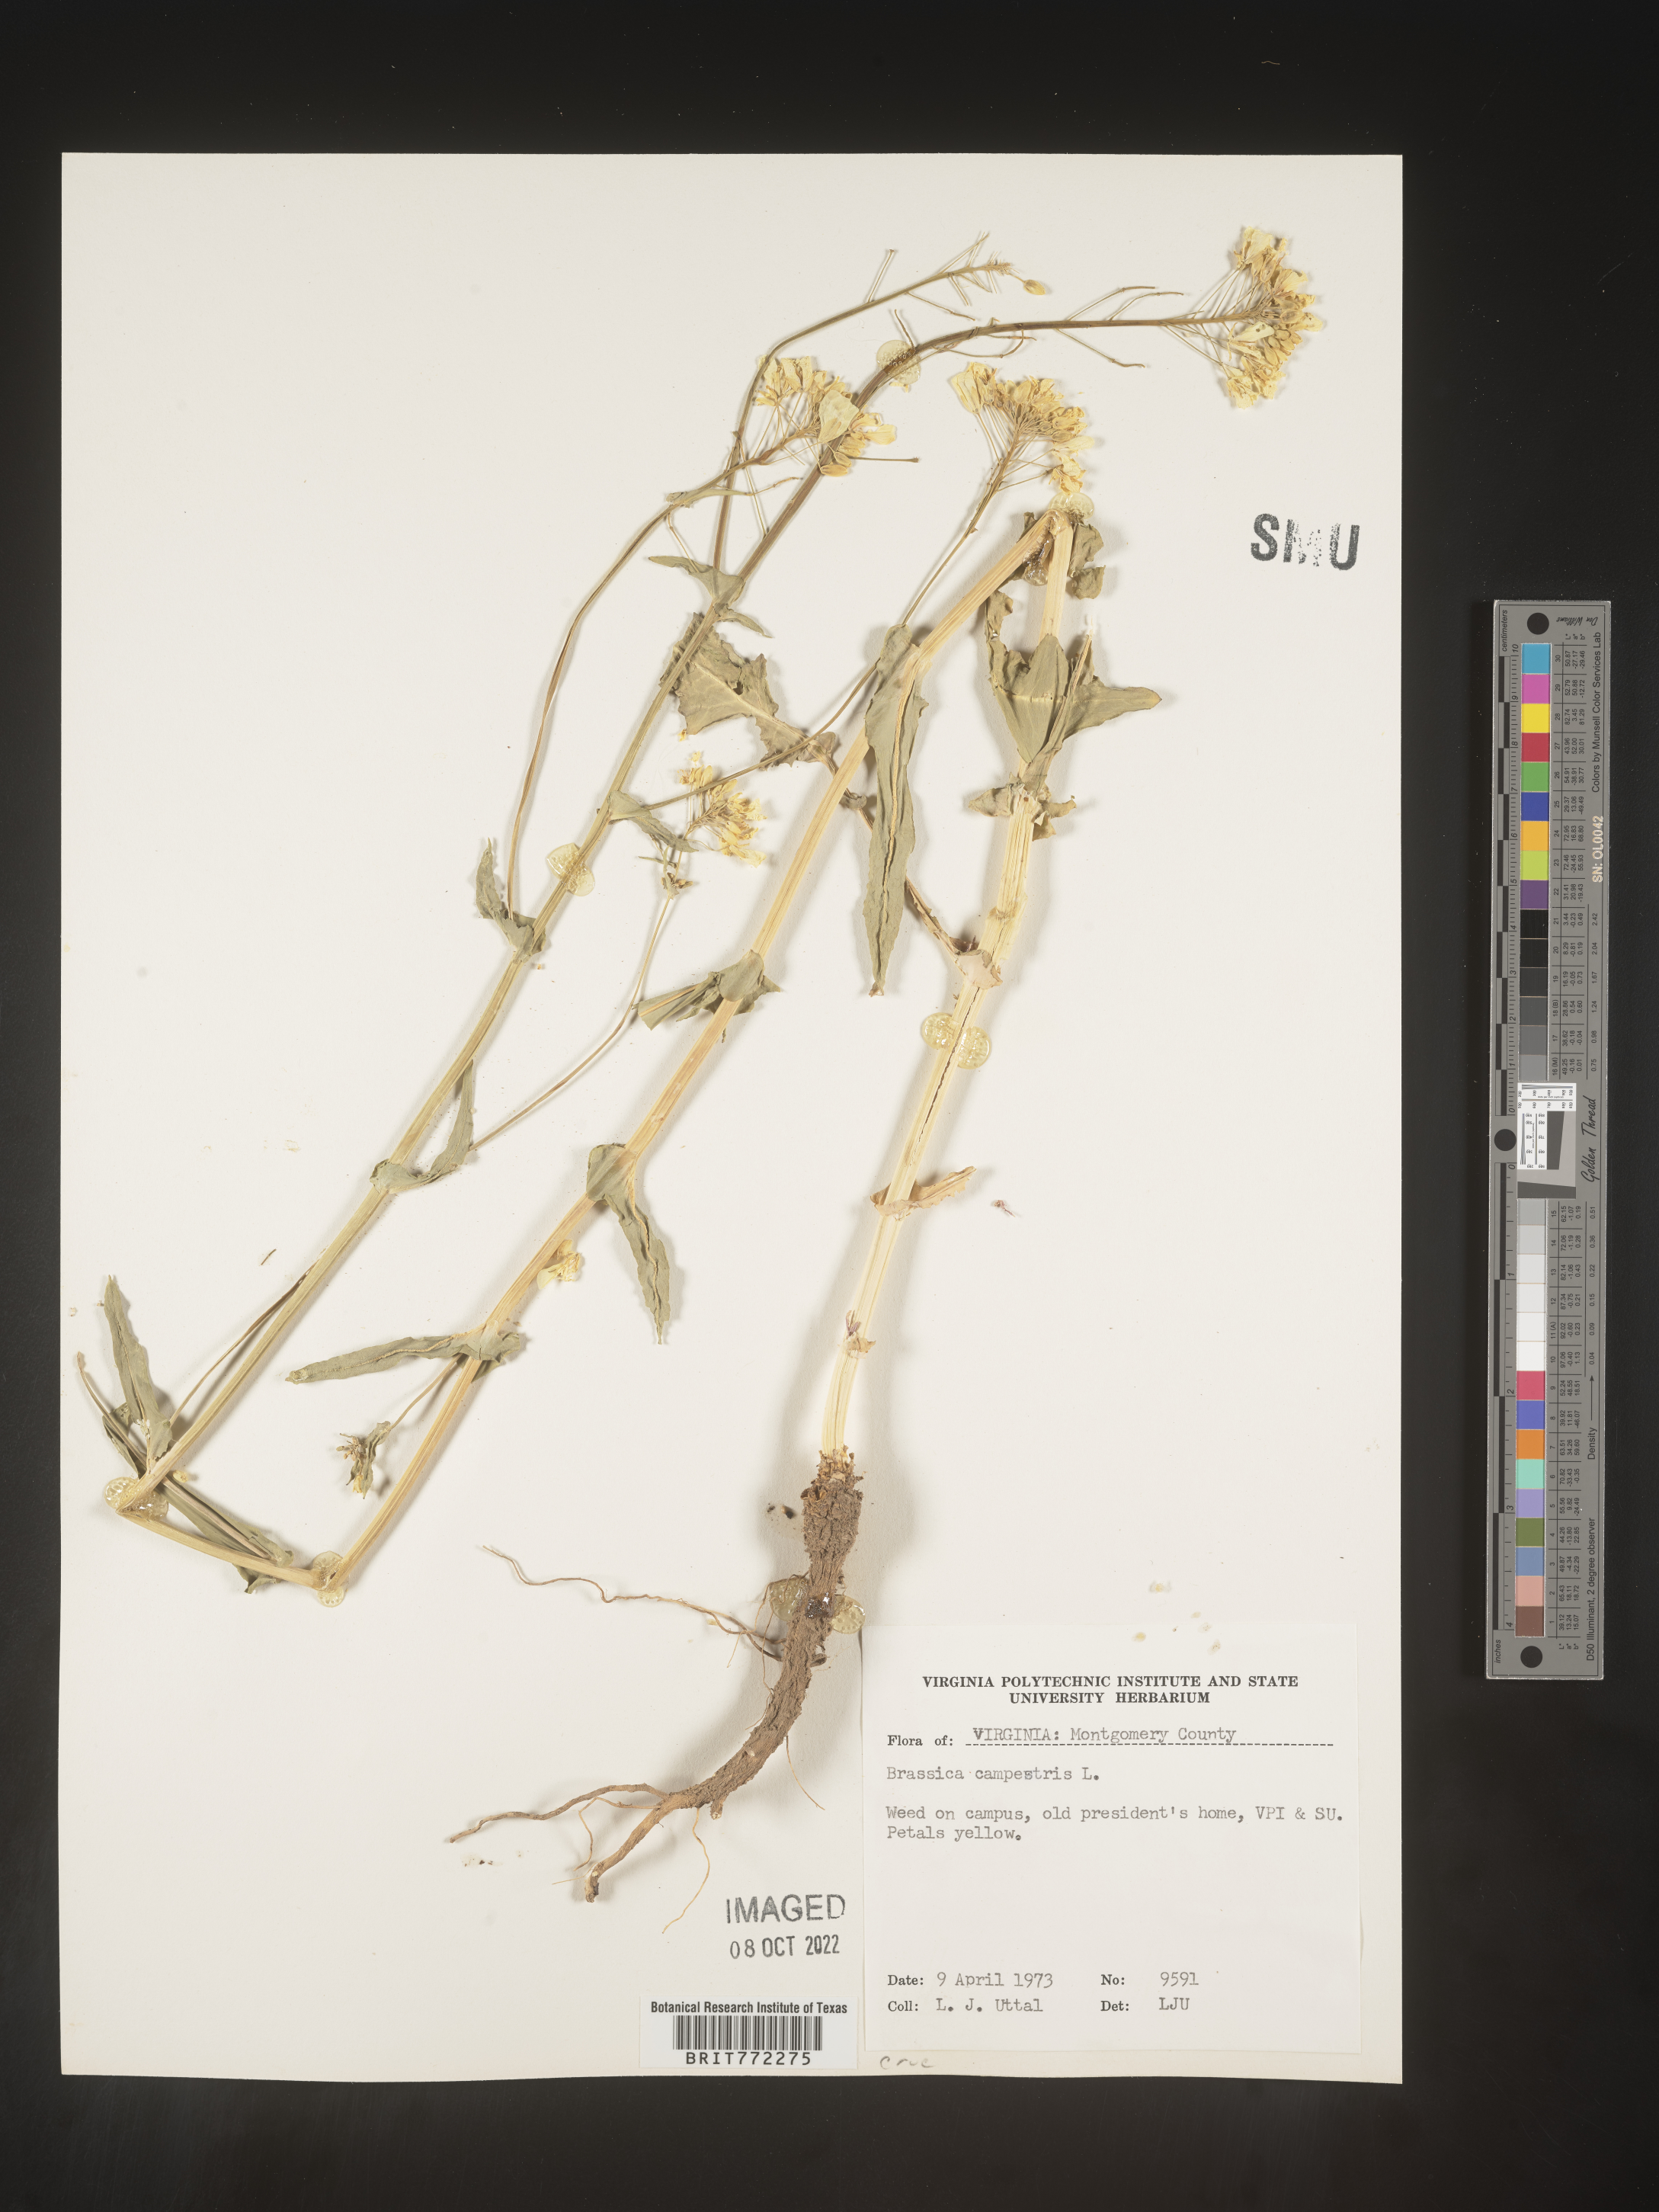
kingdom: Plantae
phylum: Tracheophyta
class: Magnoliopsida
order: Brassicales
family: Brassicaceae
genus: Brassica
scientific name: Brassica
